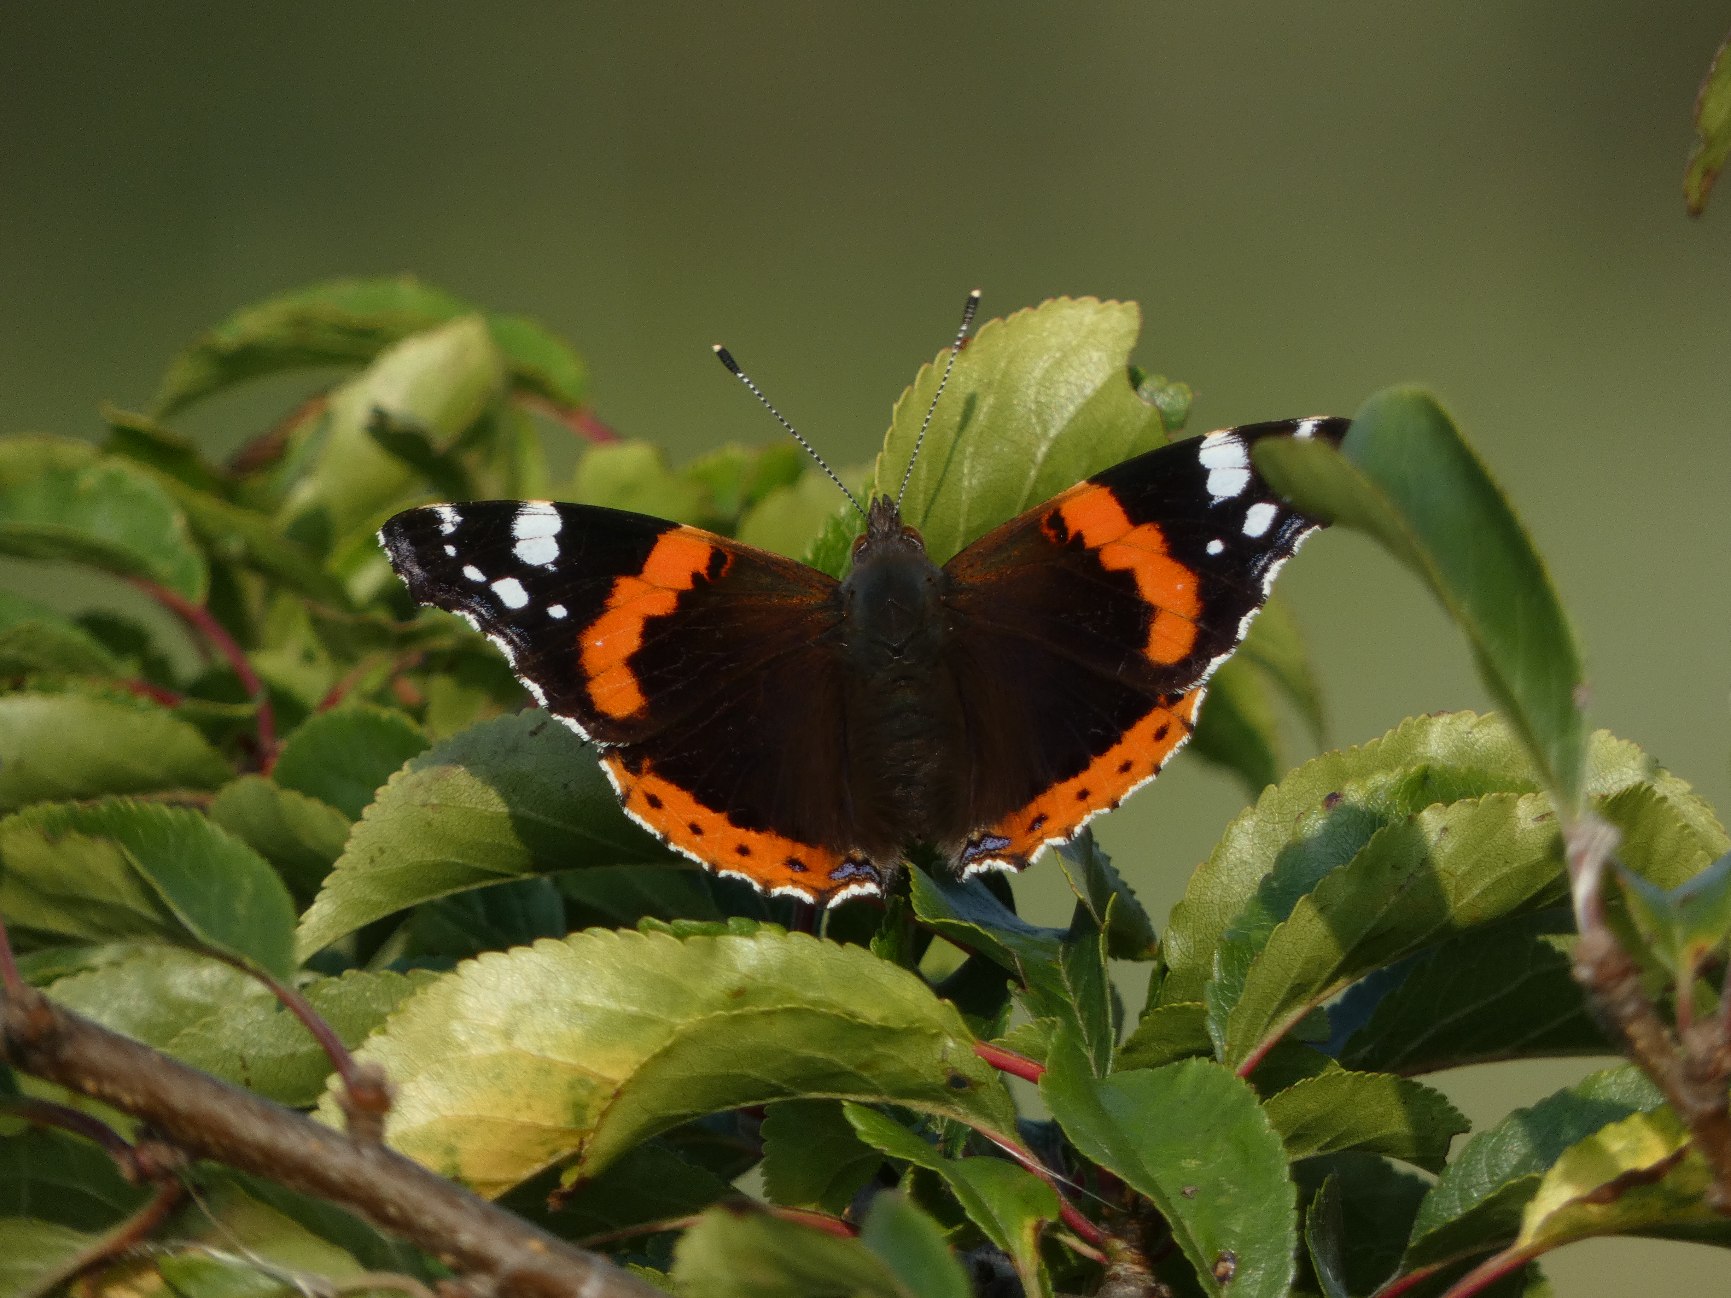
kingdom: Animalia
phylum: Arthropoda
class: Insecta
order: Lepidoptera
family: Nymphalidae
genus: Vanessa
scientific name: Vanessa atalanta
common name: Admiral
